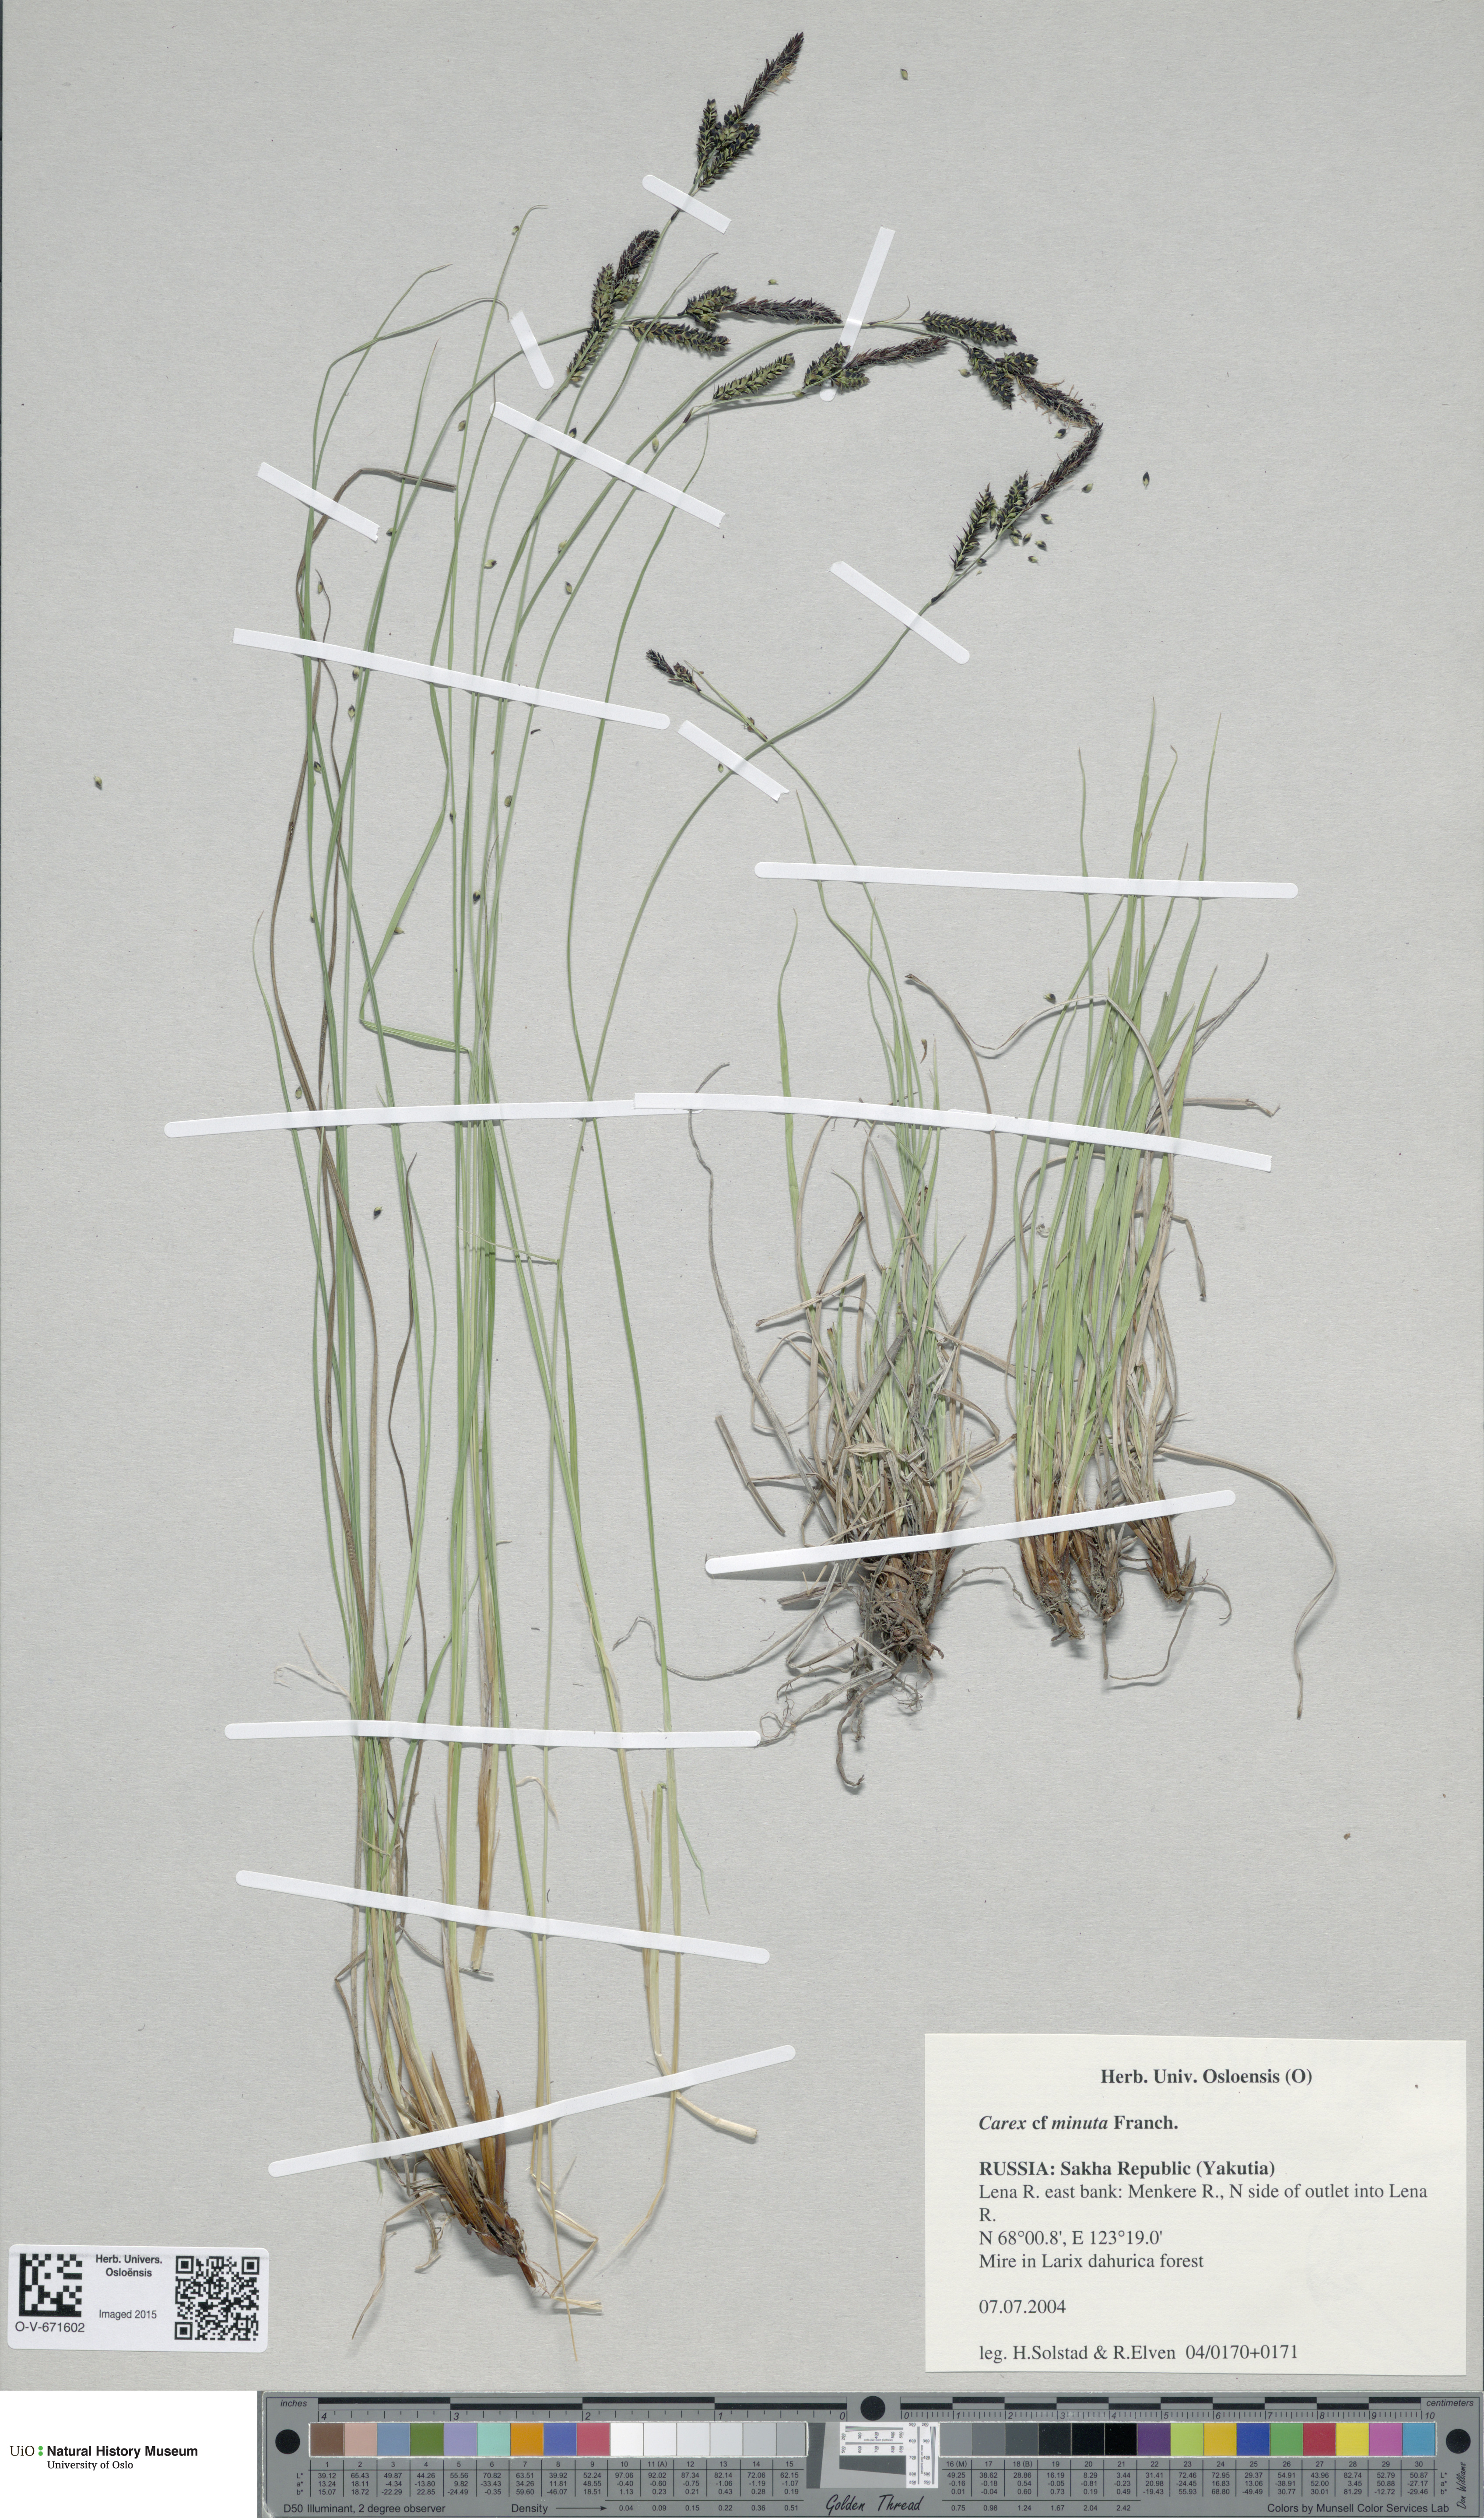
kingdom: Plantae
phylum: Tracheophyta
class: Liliopsida
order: Poales
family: Cyperaceae
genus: Carex
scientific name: Carex cespitosa
